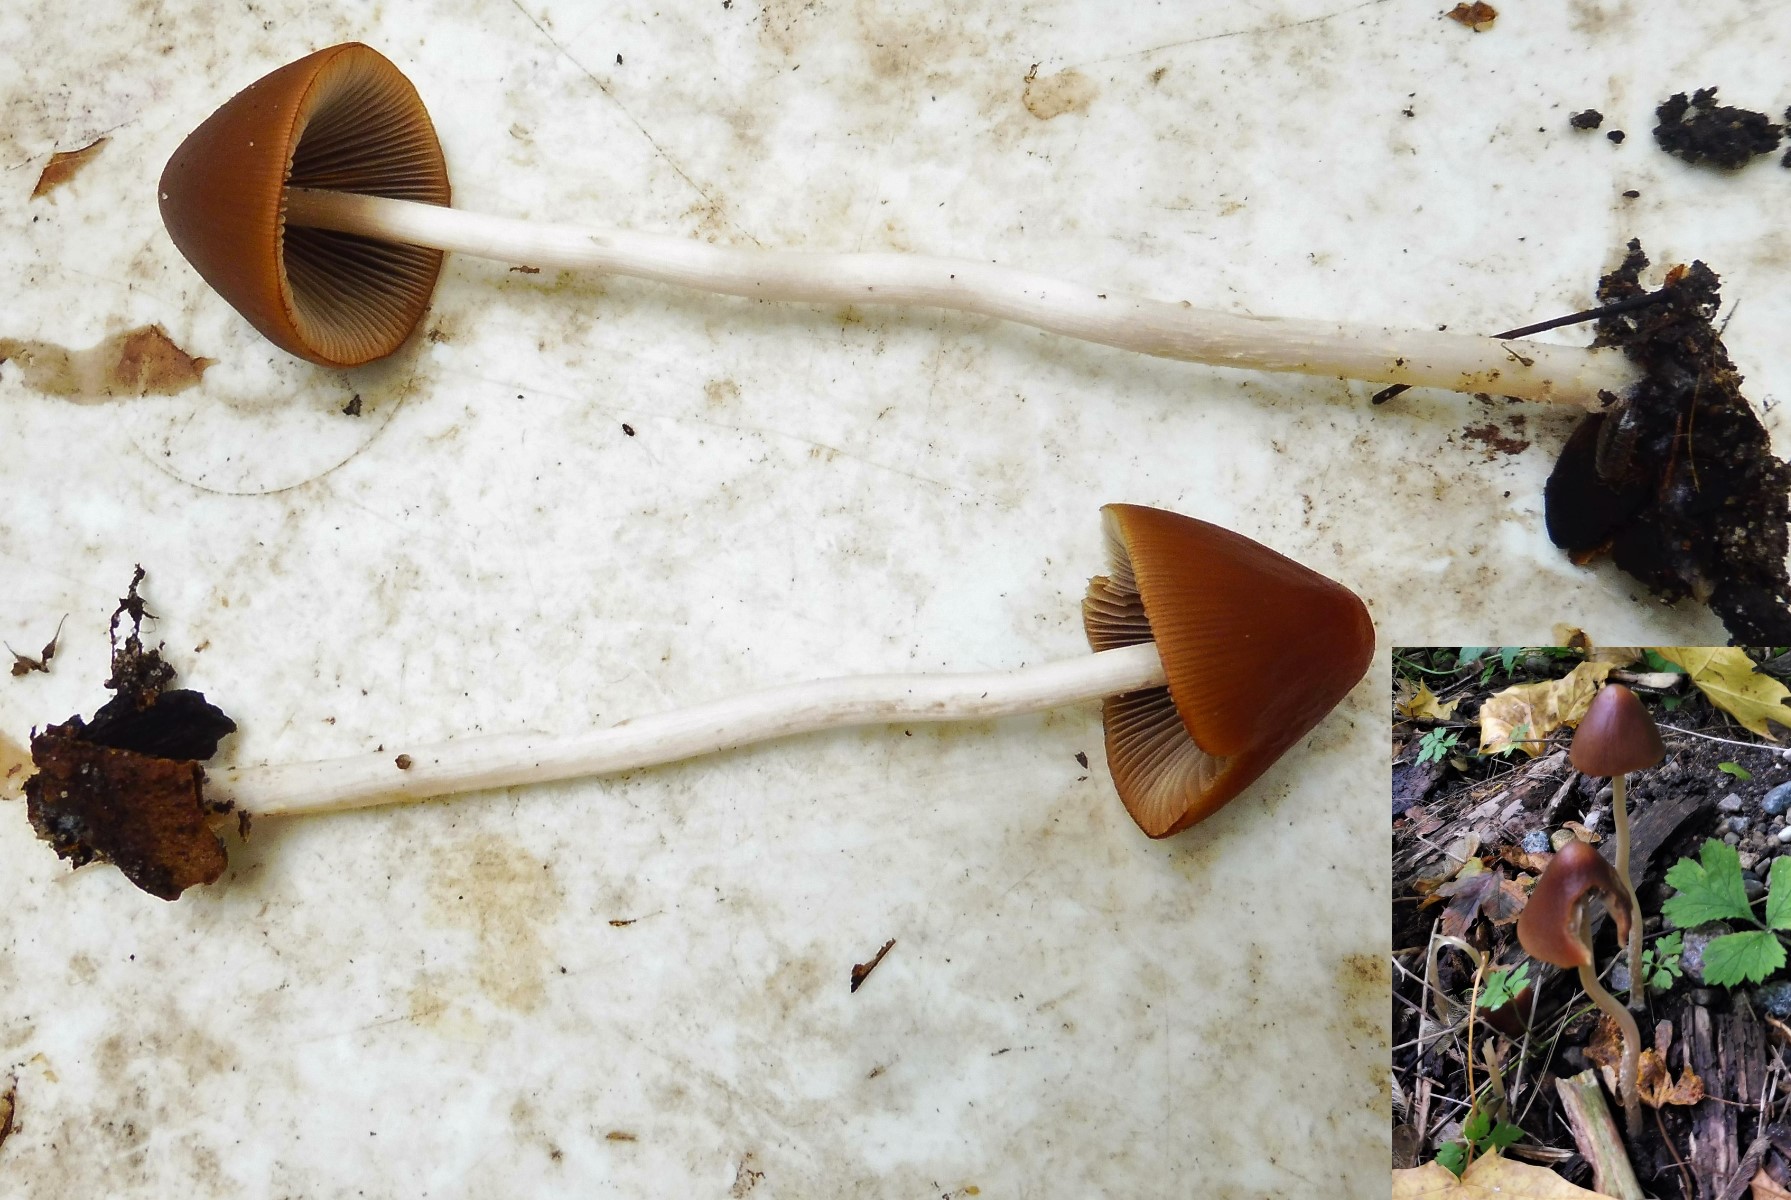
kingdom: Fungi
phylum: Basidiomycota
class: Agaricomycetes
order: Agaricales
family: Psathyrellaceae
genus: Parasola
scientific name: Parasola conopilea
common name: kegle-hjulhat
